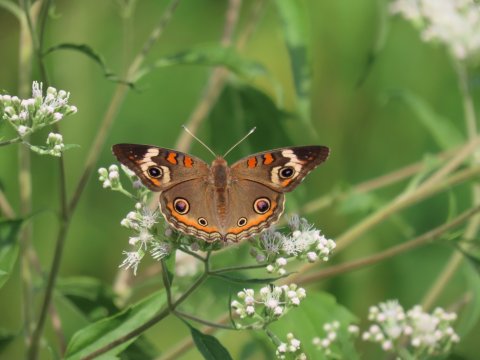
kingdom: Animalia
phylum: Arthropoda
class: Insecta
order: Lepidoptera
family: Nymphalidae
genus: Junonia
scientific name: Junonia coenia
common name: Common Buckeye
